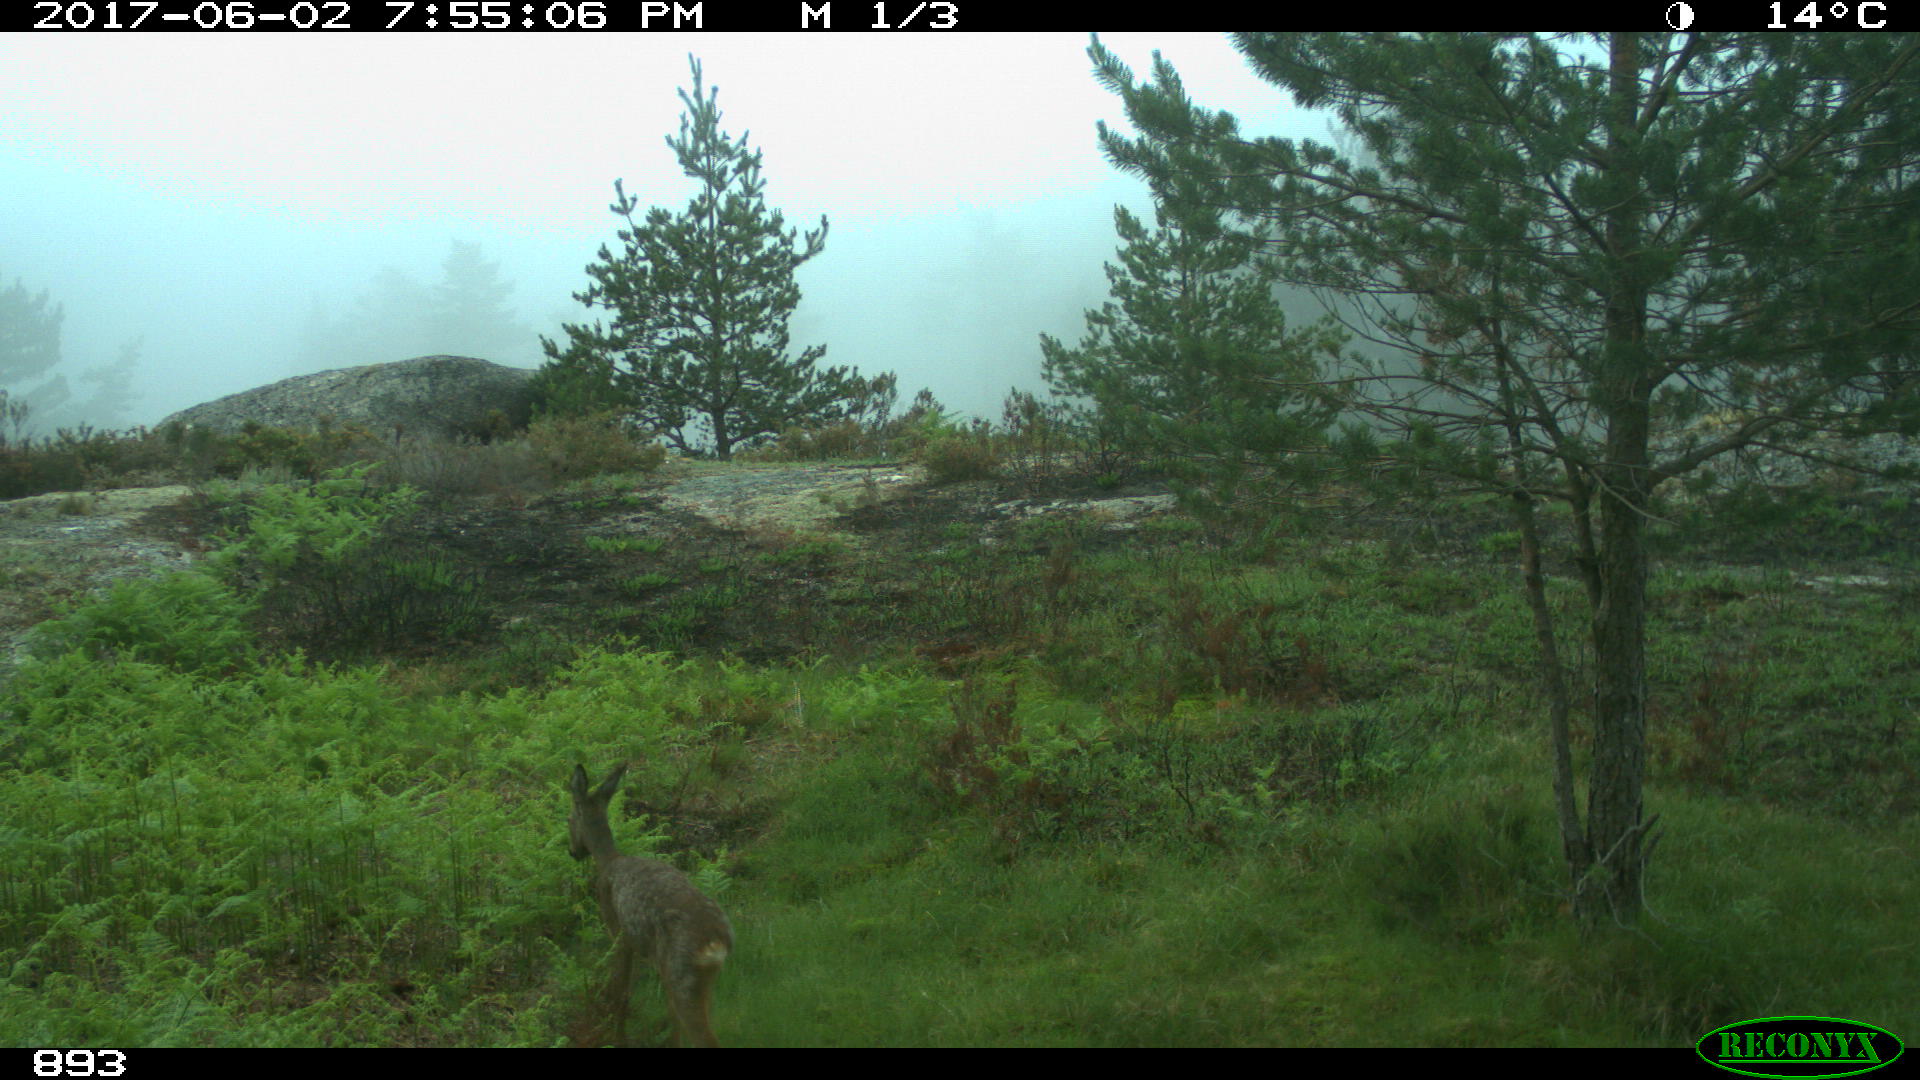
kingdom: Animalia
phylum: Chordata
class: Mammalia
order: Artiodactyla
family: Cervidae
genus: Capreolus
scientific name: Capreolus capreolus
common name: Western roe deer
